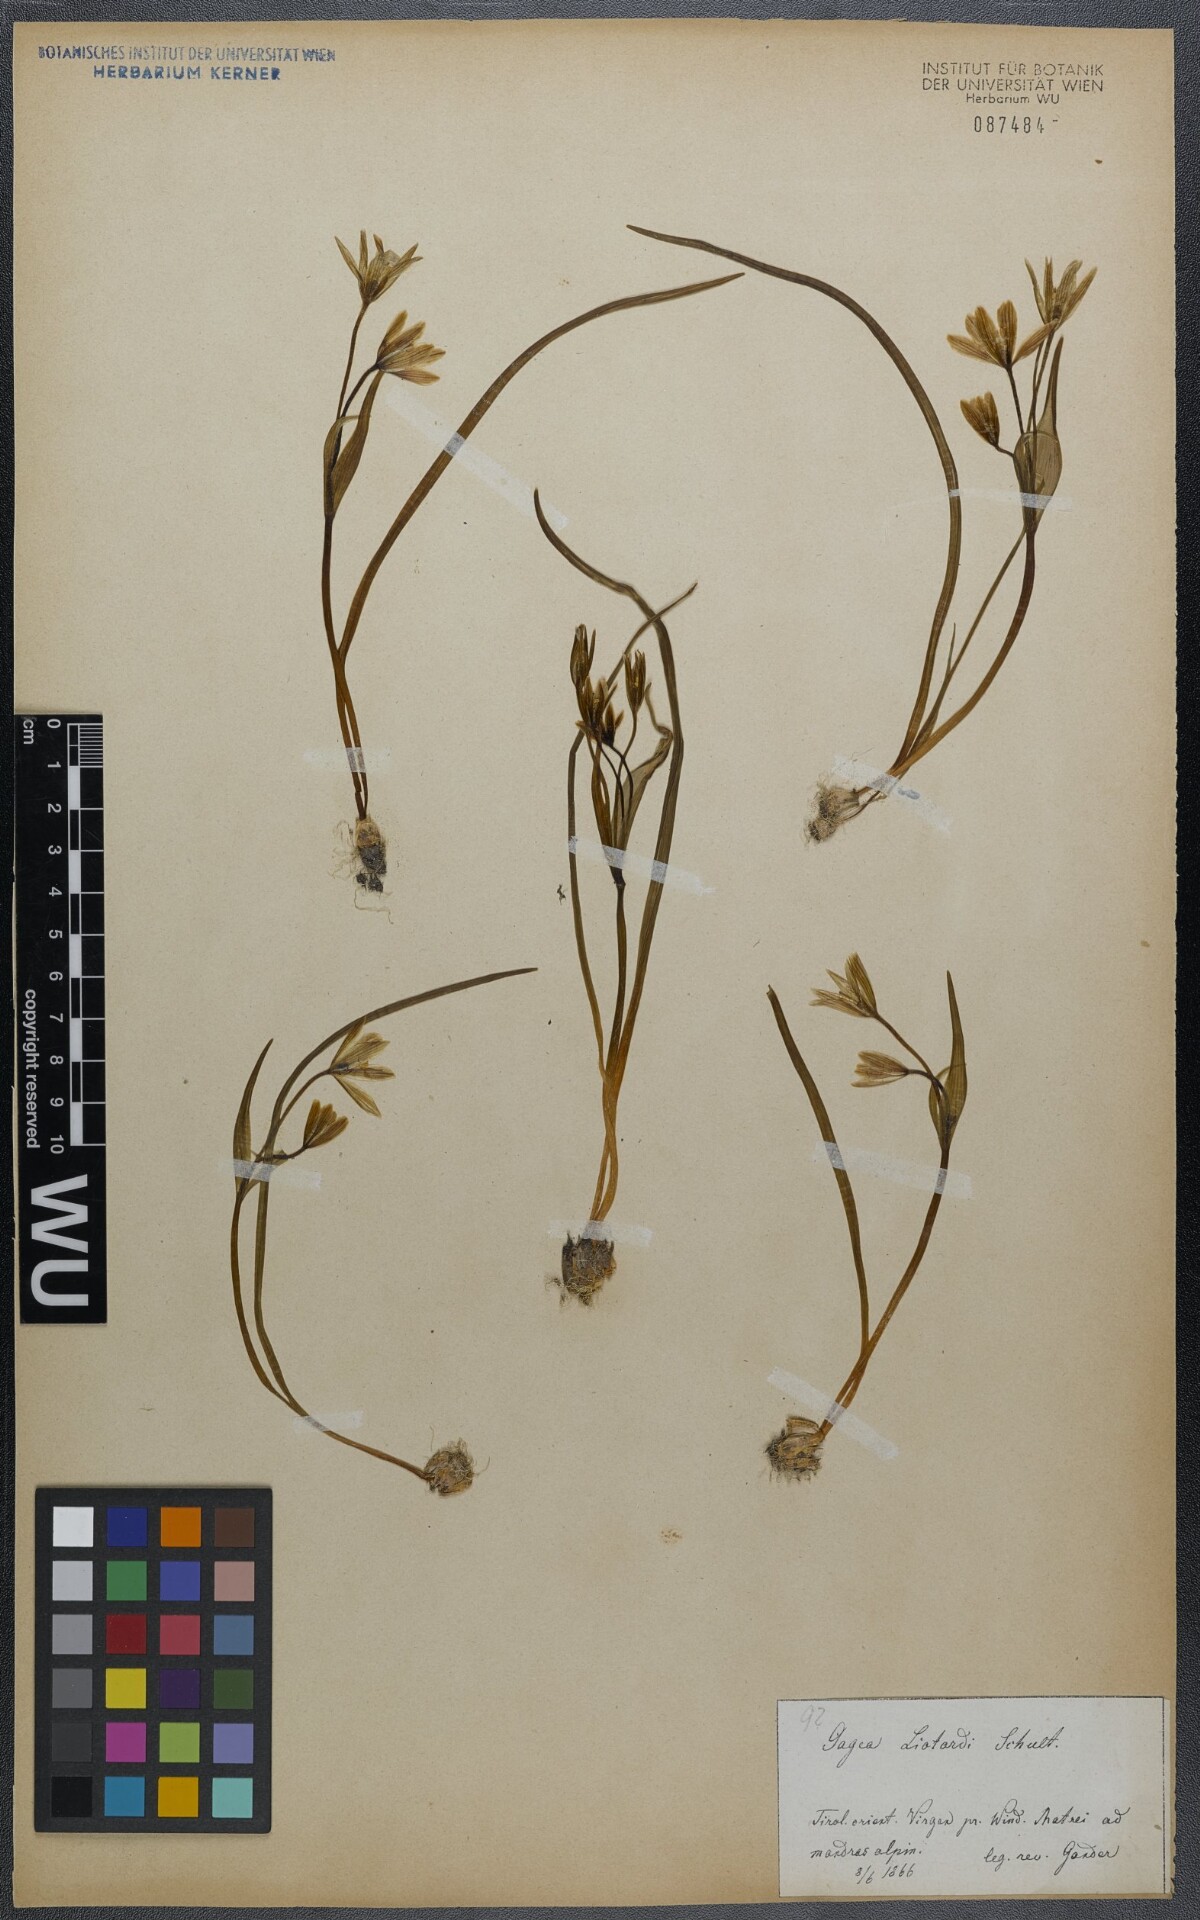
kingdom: Plantae
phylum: Tracheophyta
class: Liliopsida
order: Liliales
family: Liliaceae
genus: Gagea
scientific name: Gagea fragifera
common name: Lily
